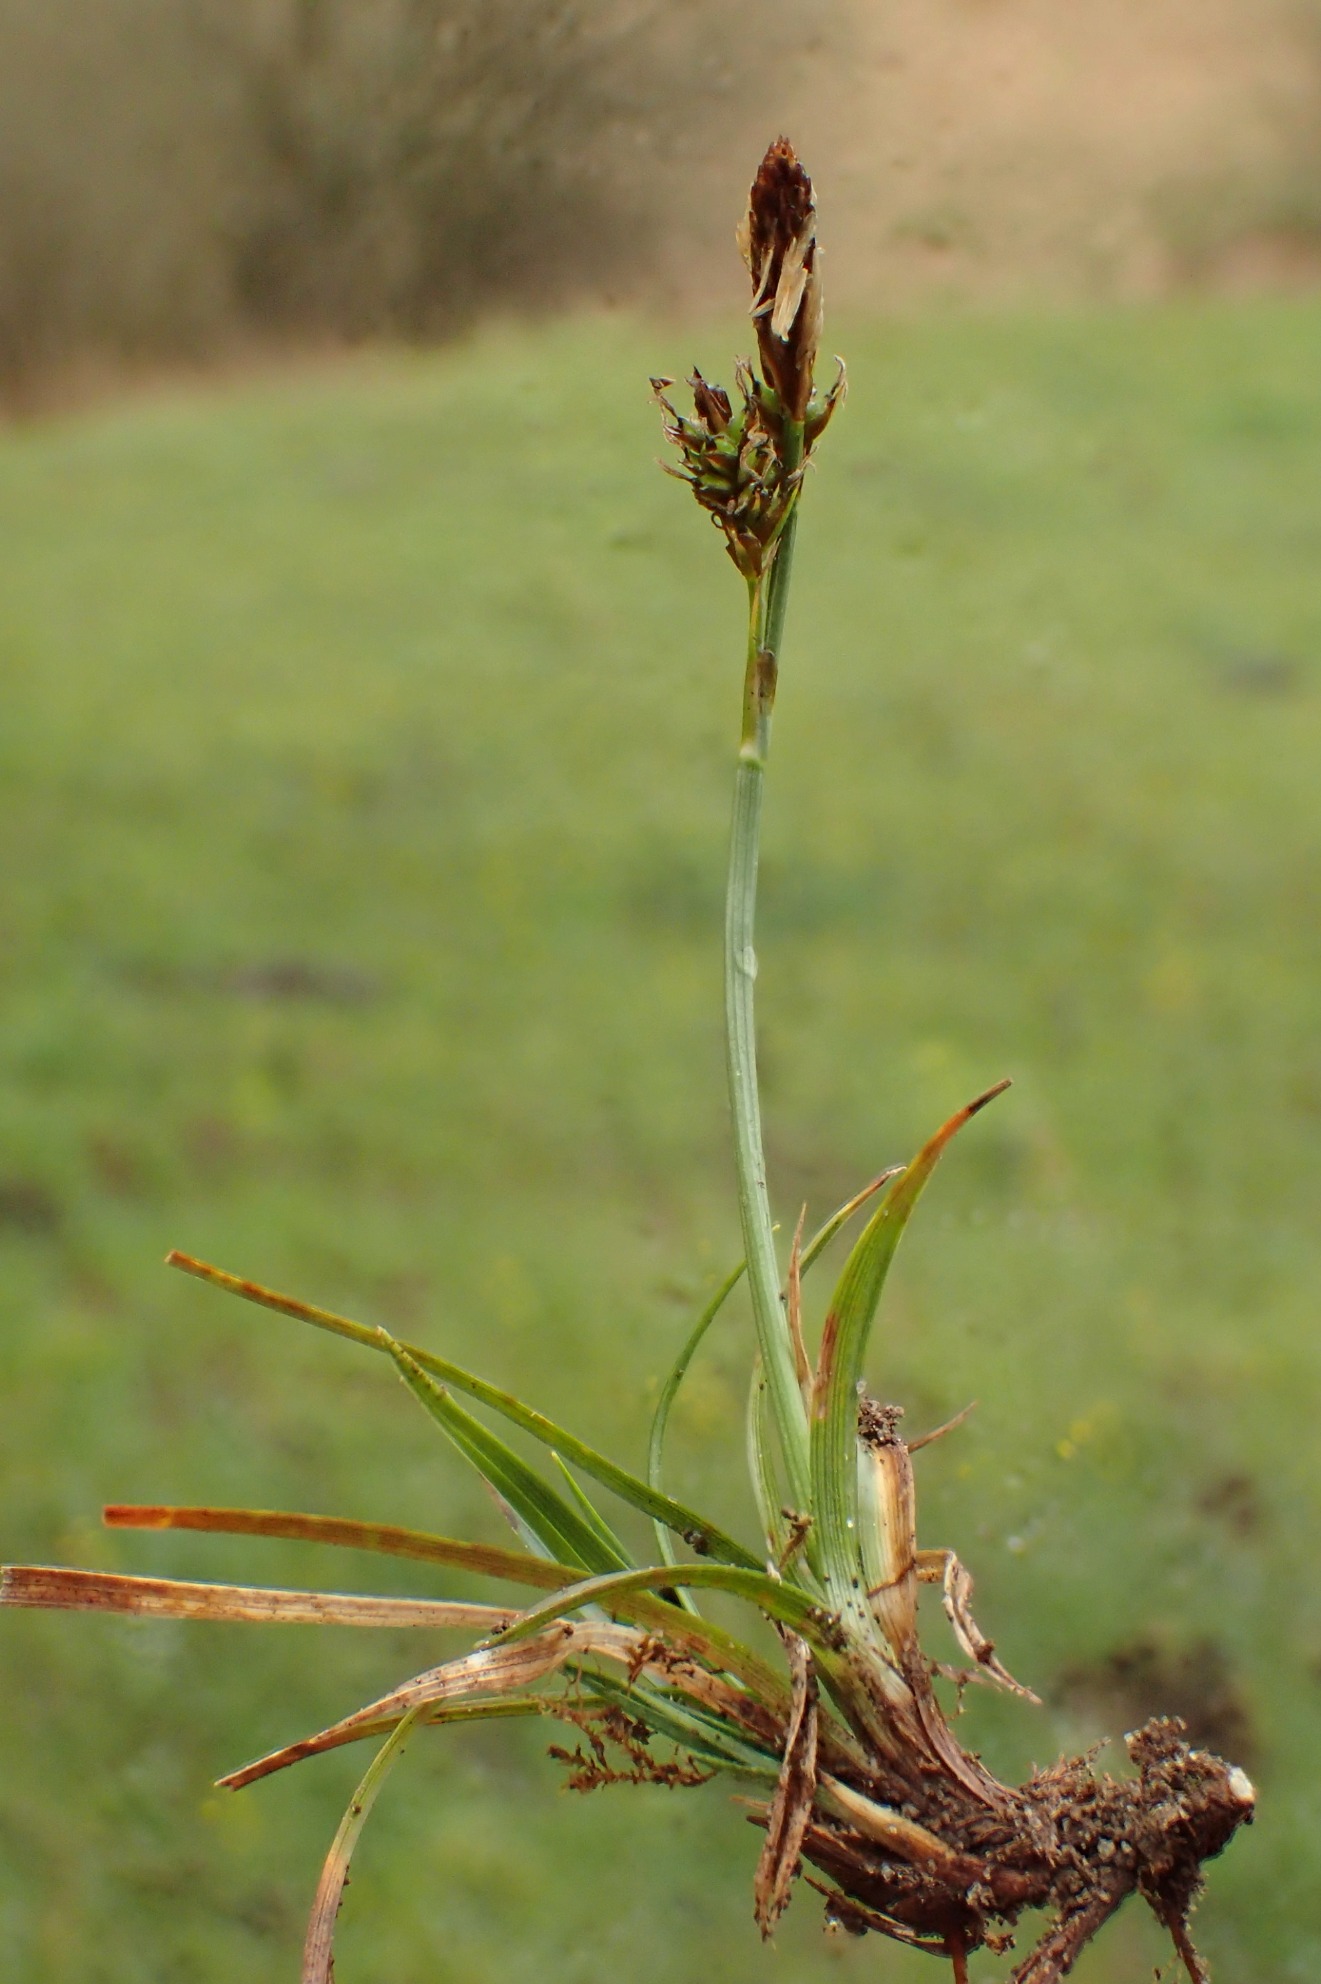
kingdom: Plantae
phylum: Tracheophyta
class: Liliopsida
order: Poales
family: Cyperaceae
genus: Carex
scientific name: Carex caryophyllea
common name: Vår-star
